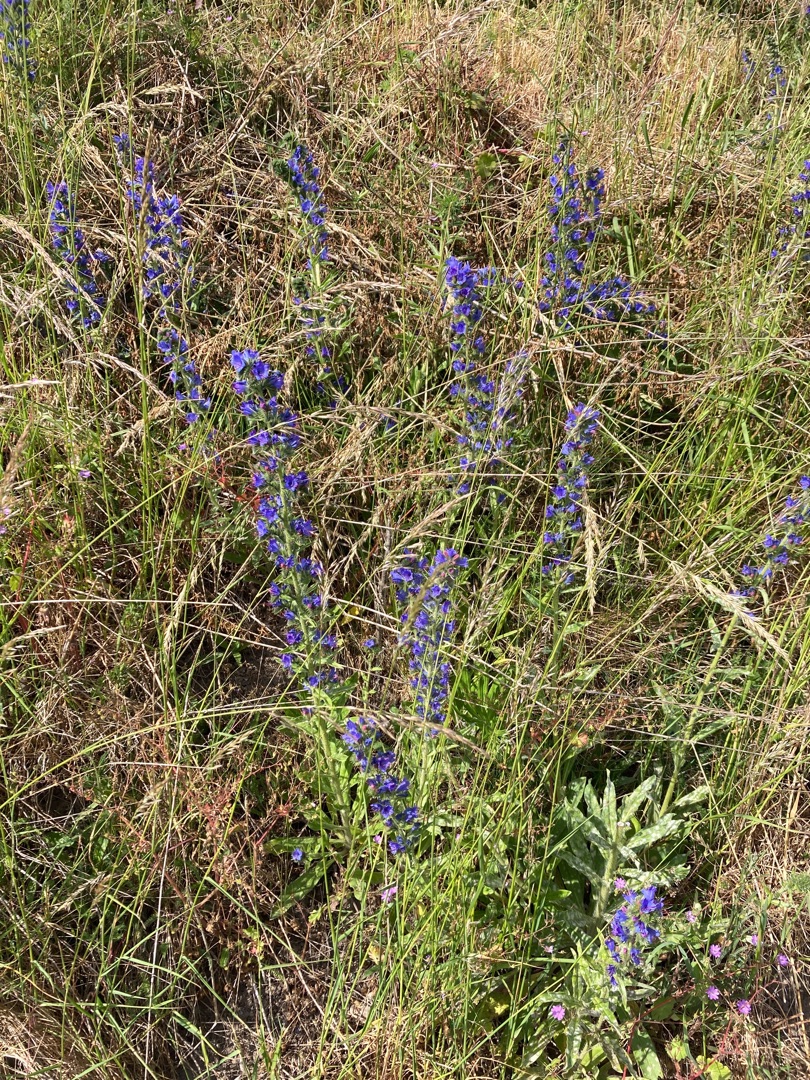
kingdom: Plantae
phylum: Tracheophyta
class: Magnoliopsida
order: Boraginales
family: Boraginaceae
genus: Echium
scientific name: Echium vulgare
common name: Slangehoved
